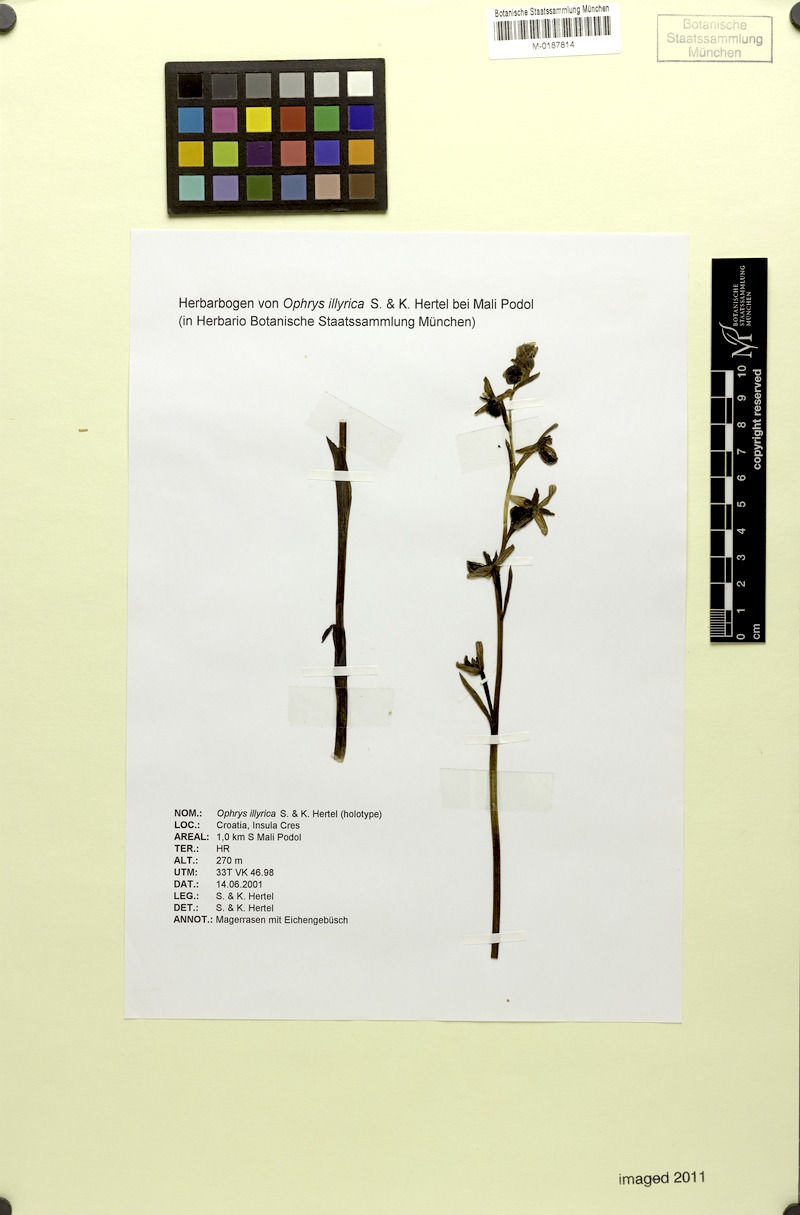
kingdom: Plantae
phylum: Tracheophyta
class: Liliopsida
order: Asparagales
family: Orchidaceae
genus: Ophrys
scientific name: Ophrys sphegodes
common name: Early spider-orchid
